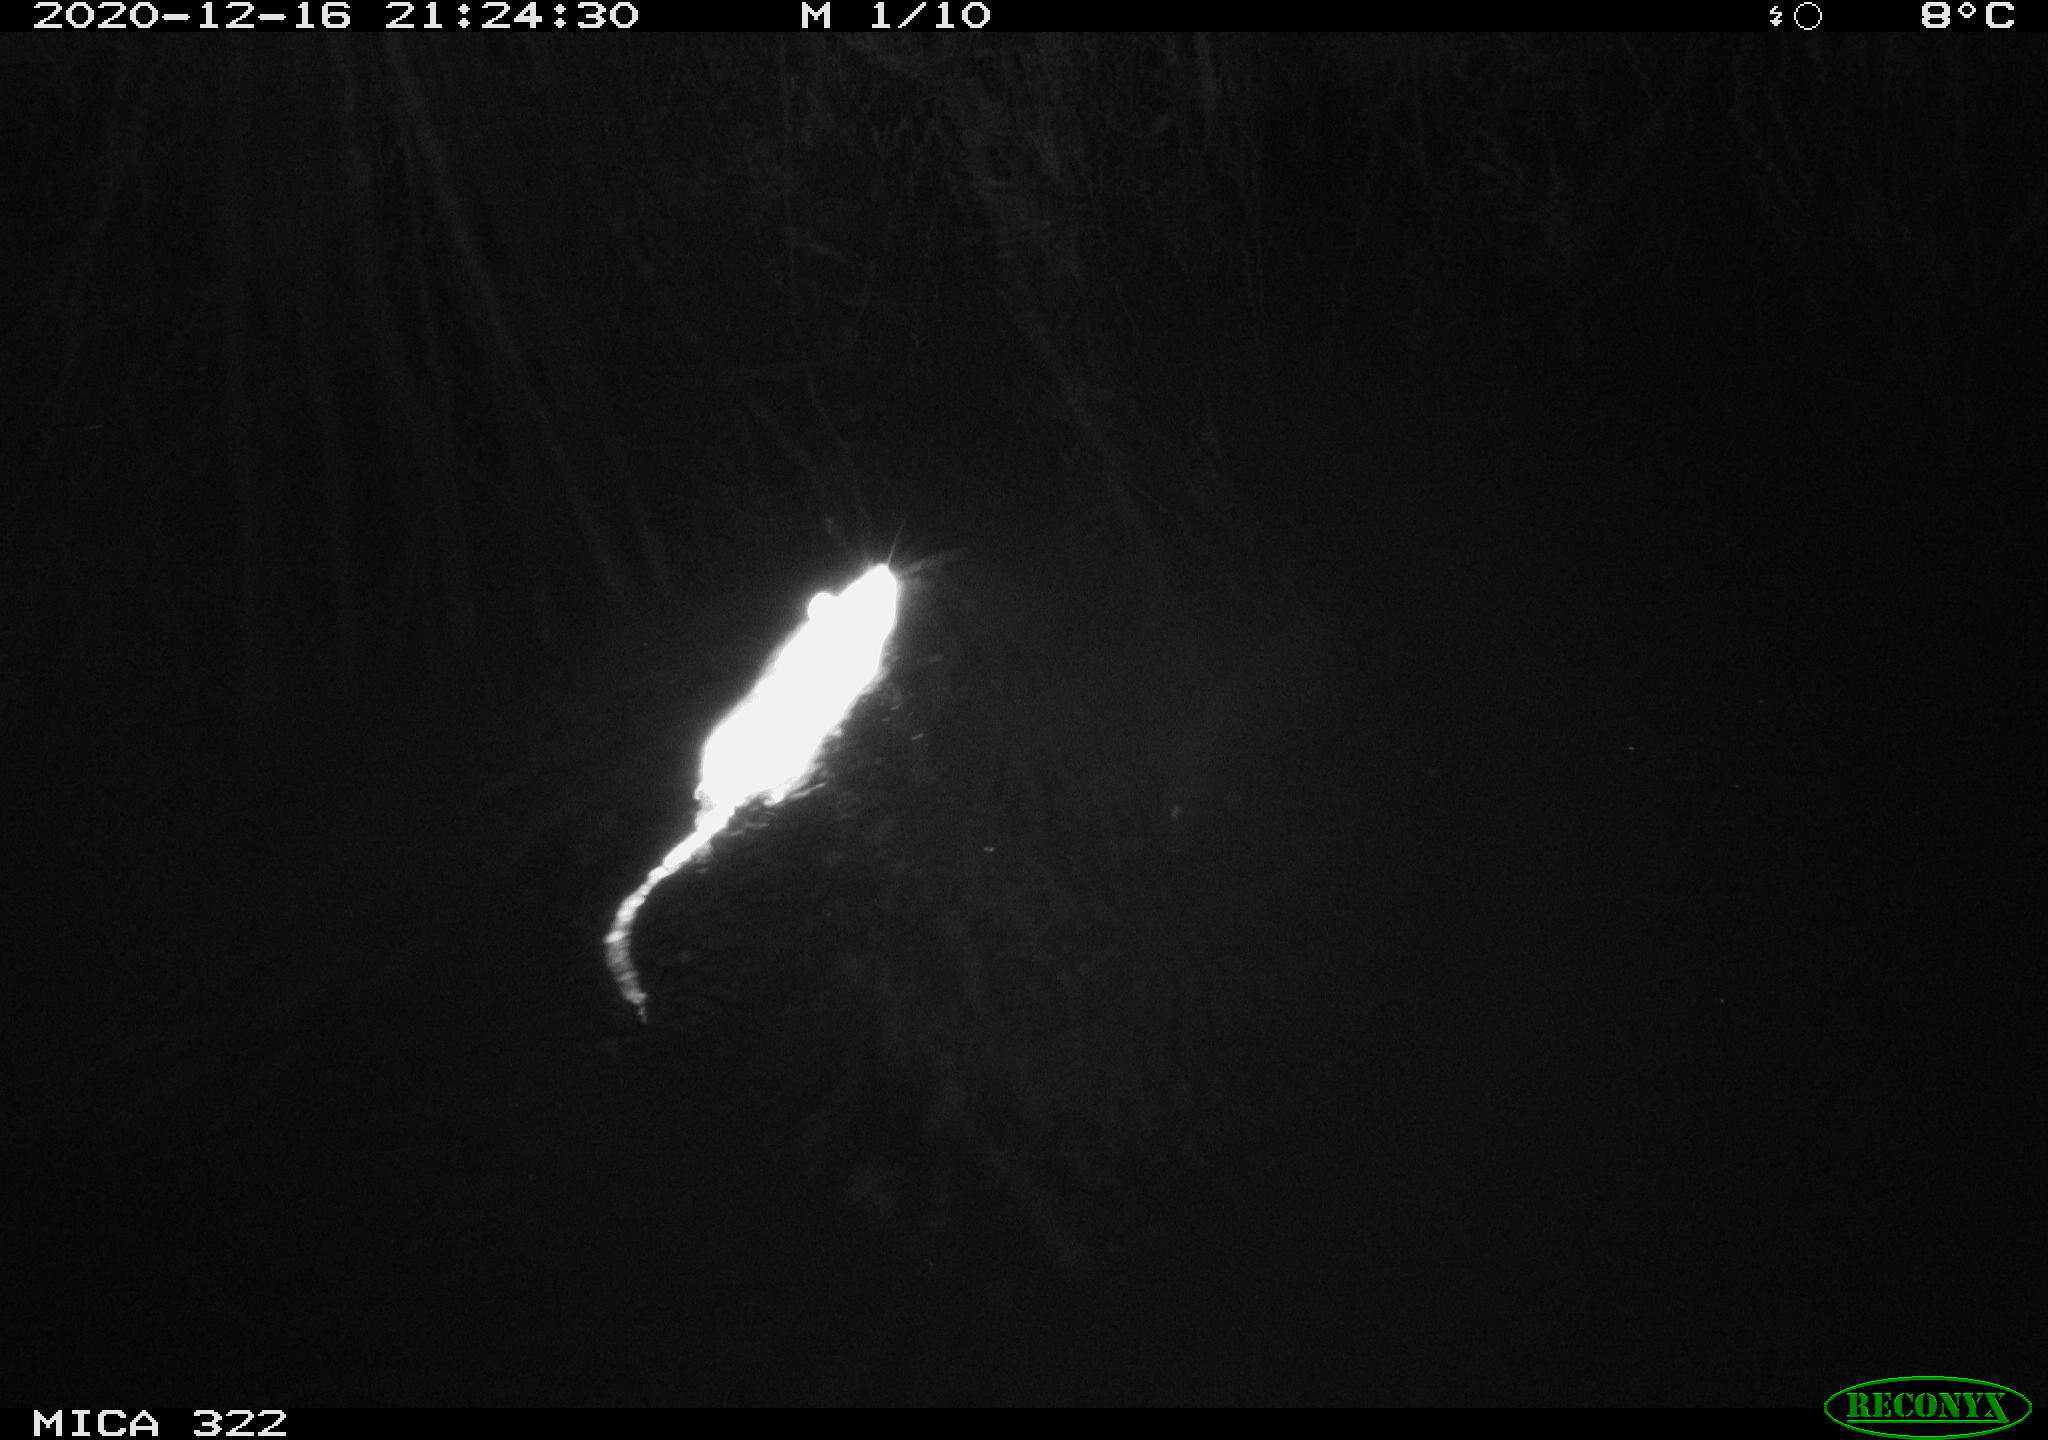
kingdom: Animalia
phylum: Chordata
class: Mammalia
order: Rodentia
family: Muridae
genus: Rattus
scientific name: Rattus norvegicus
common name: Brown rat
